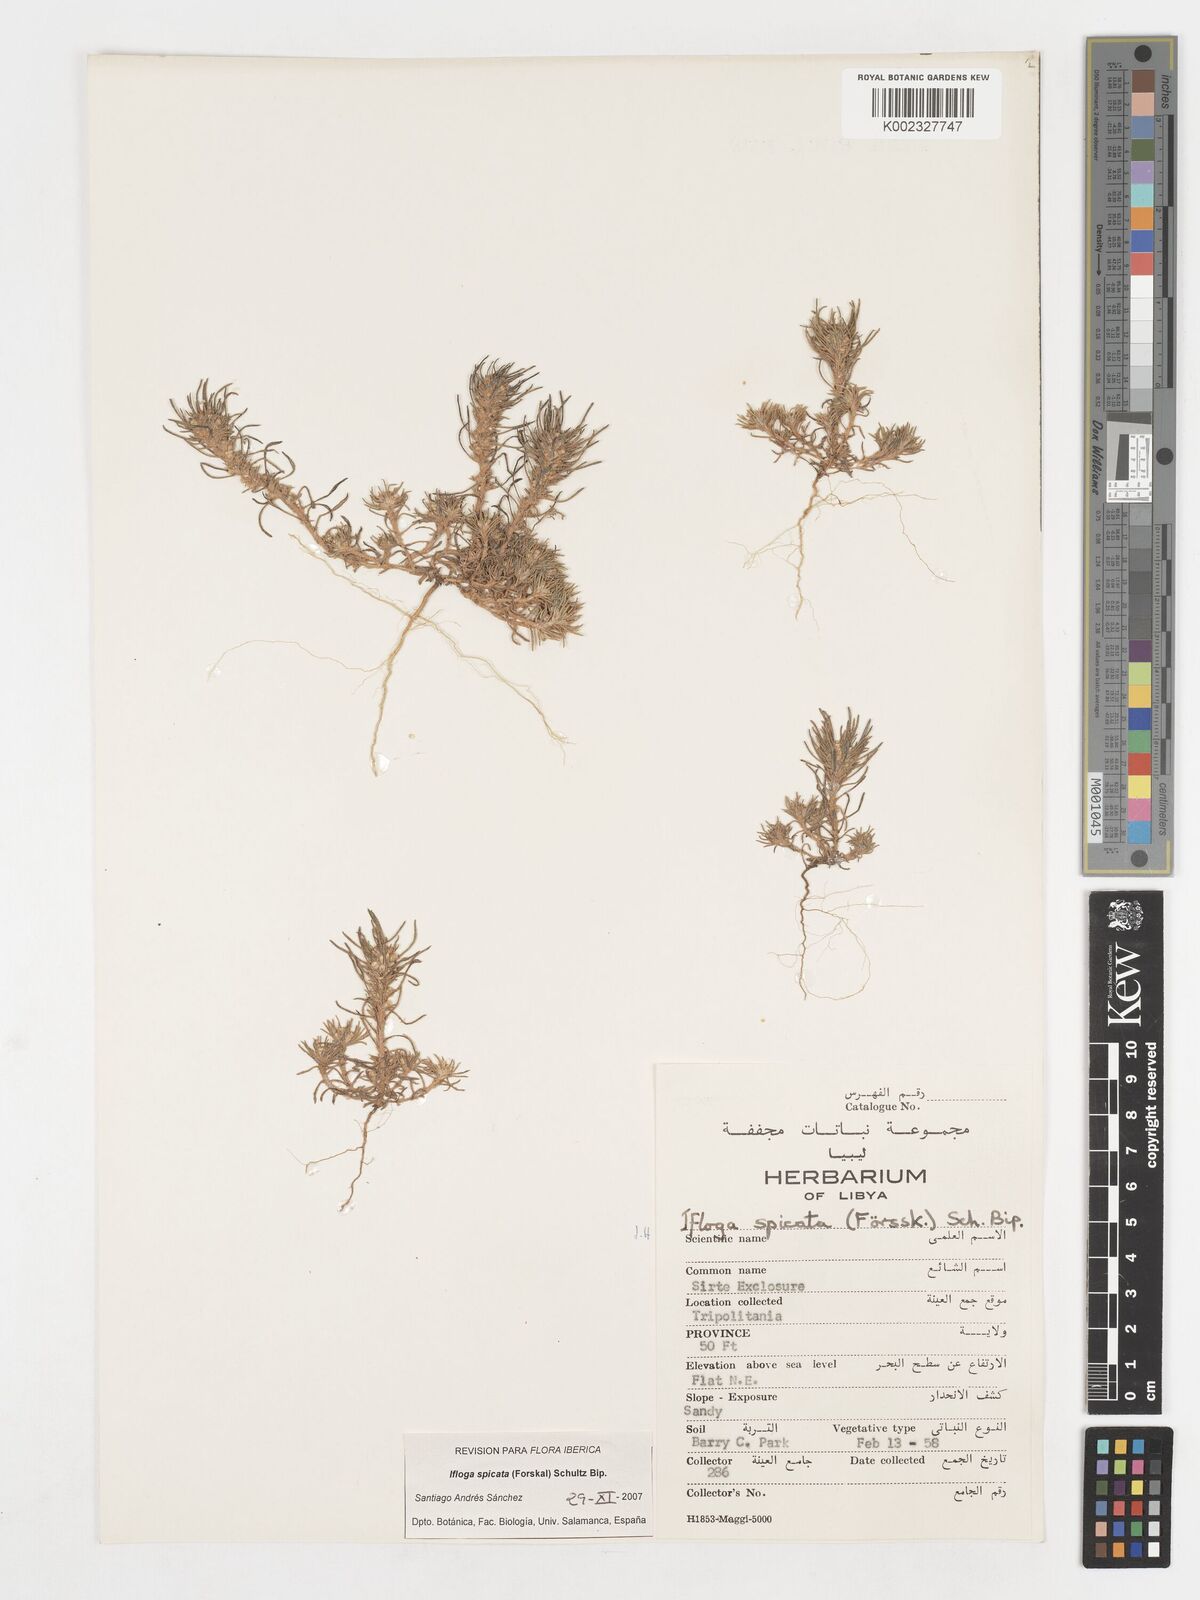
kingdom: Plantae
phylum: Tracheophyta
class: Magnoliopsida
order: Asterales
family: Asteraceae
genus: Ifloga
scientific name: Ifloga spicata
